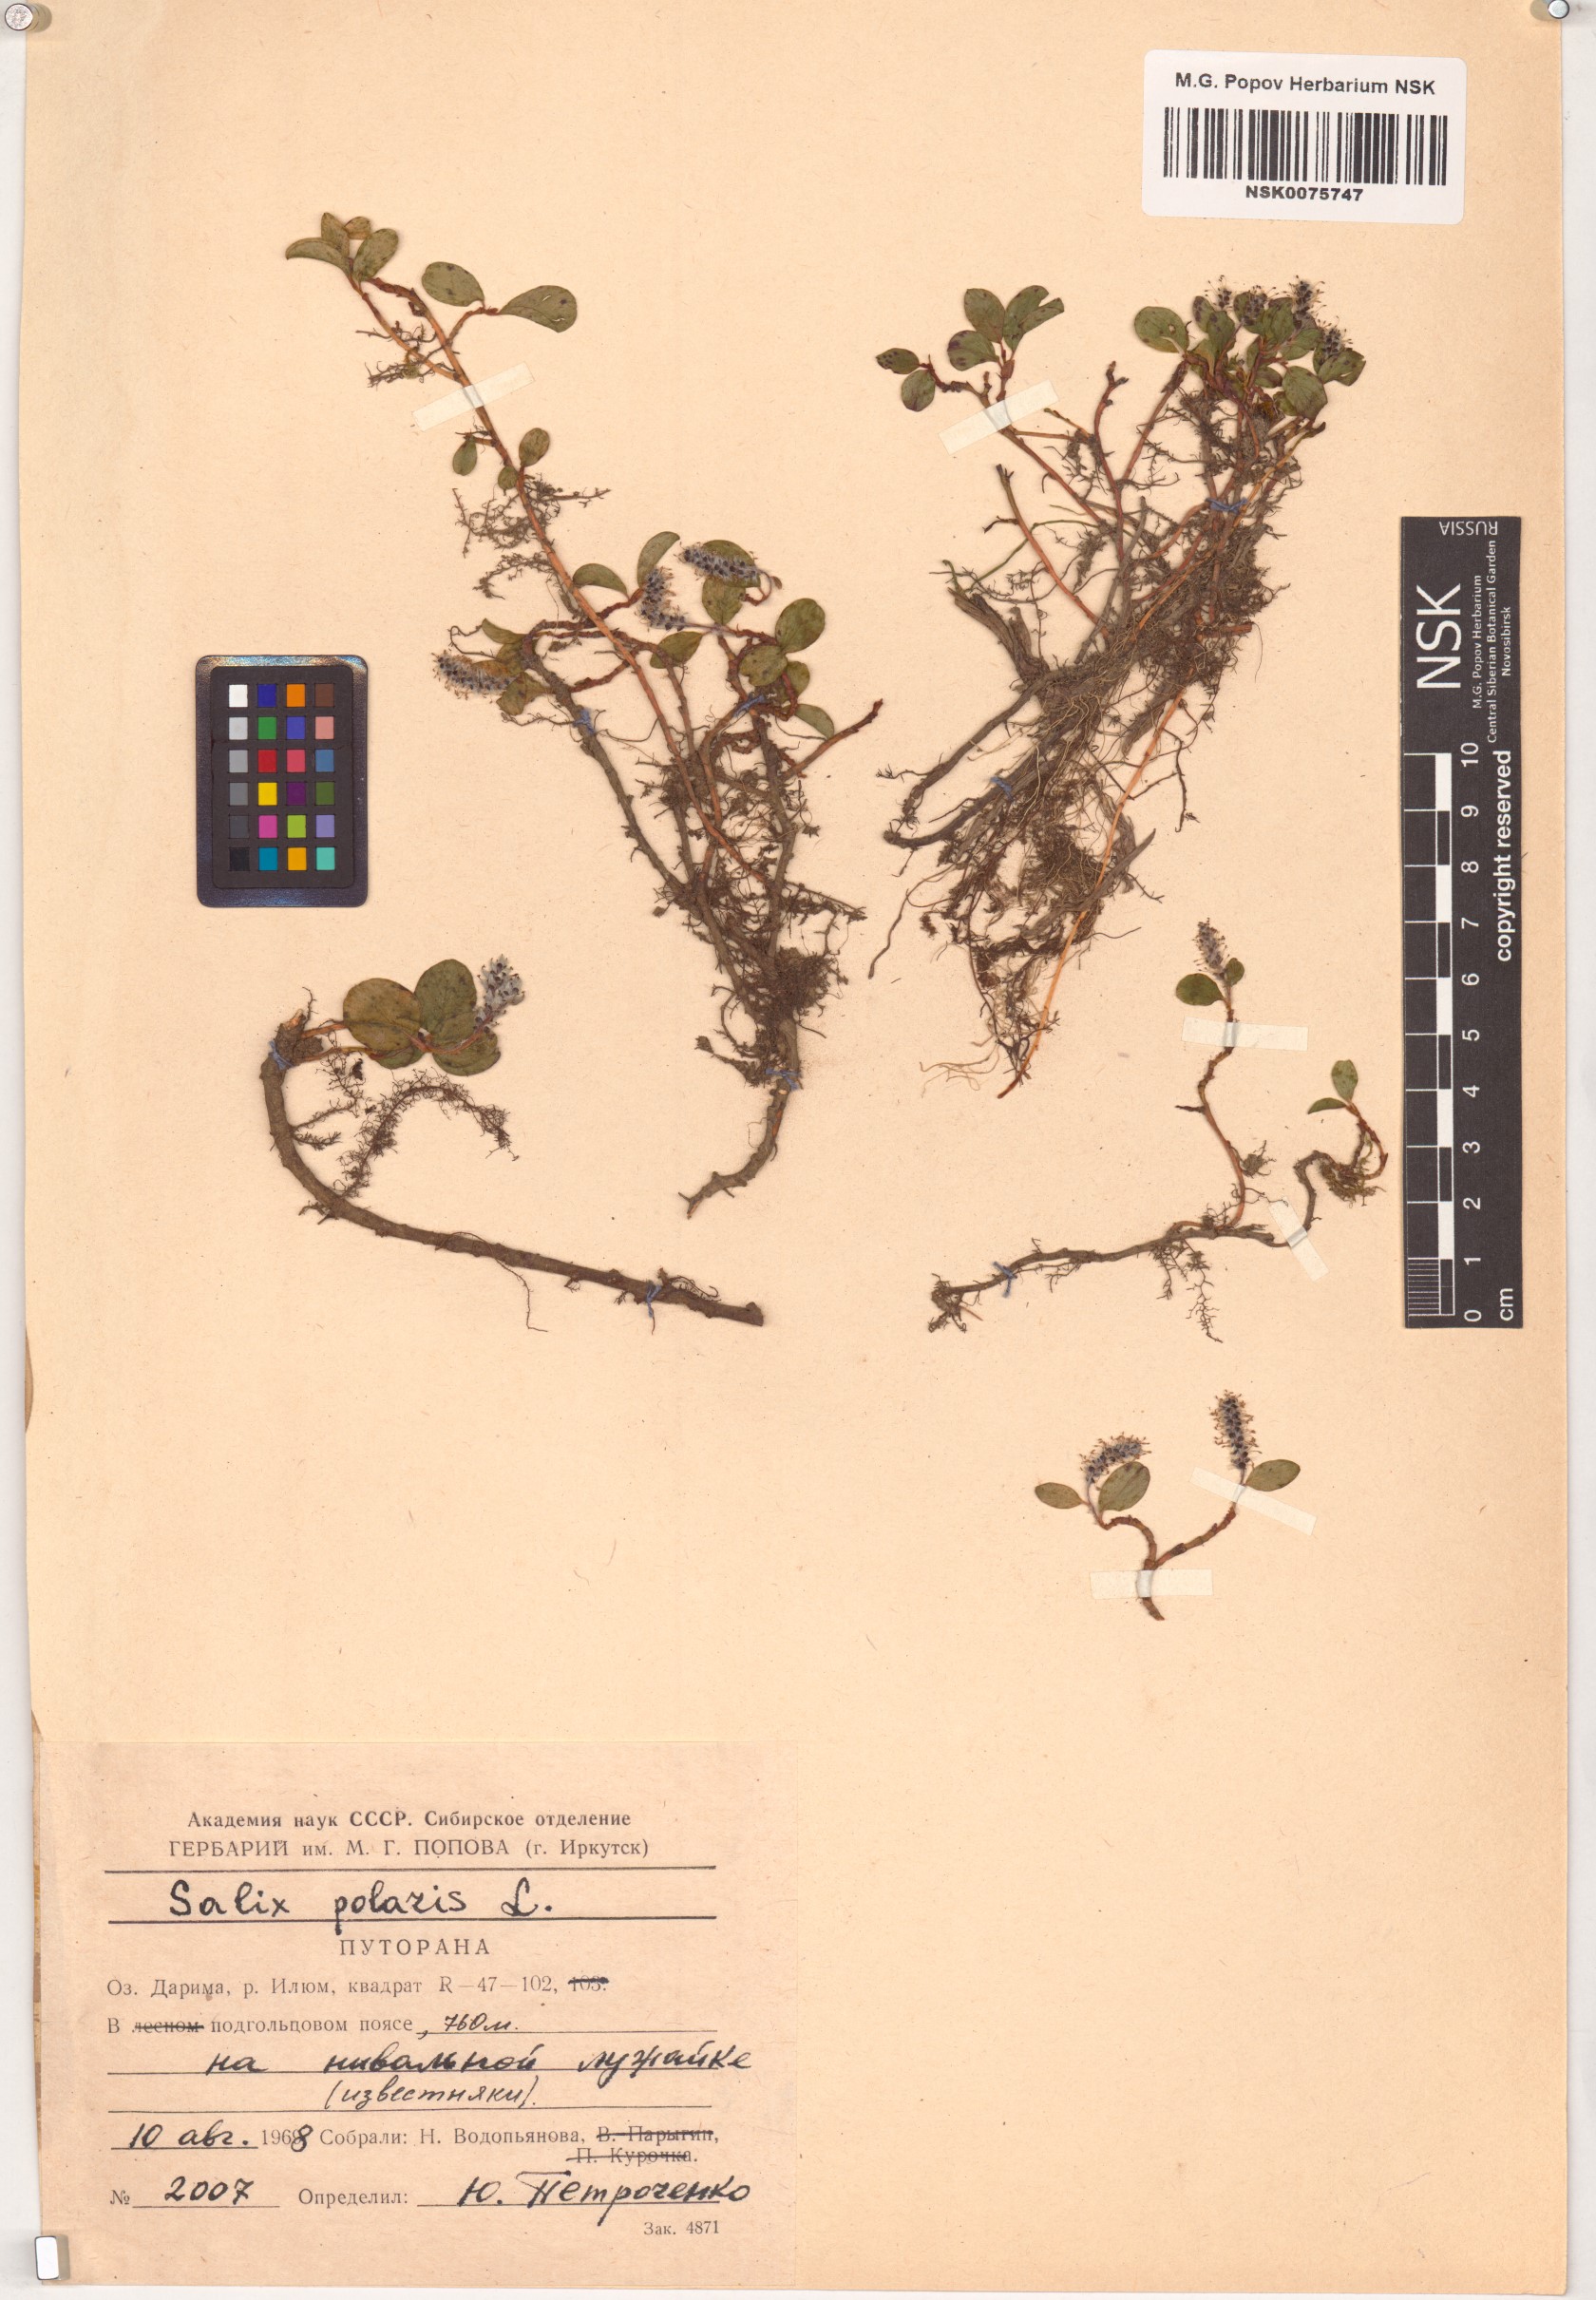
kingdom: Plantae
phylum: Tracheophyta
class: Magnoliopsida
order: Malpighiales
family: Salicaceae
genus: Salix
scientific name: Salix polaris
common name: Polar willow
